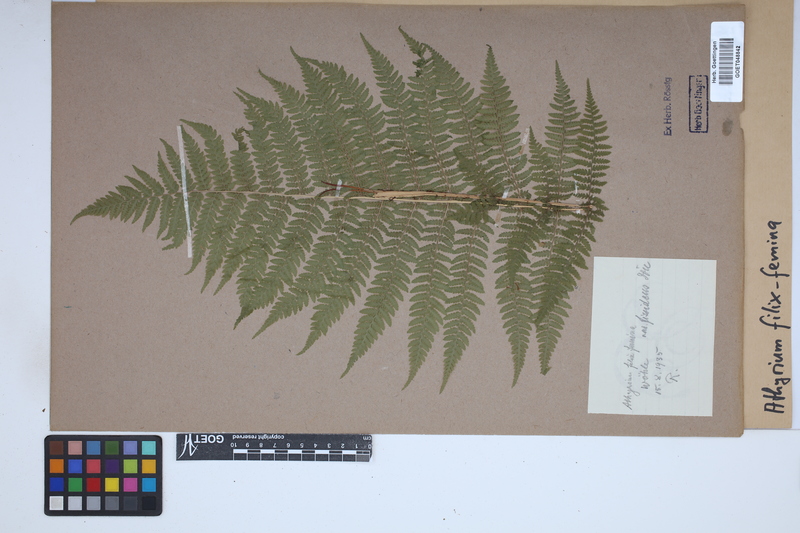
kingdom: Plantae
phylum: Tracheophyta
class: Polypodiopsida
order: Polypodiales
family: Athyriaceae
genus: Athyrium
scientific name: Athyrium filix-femina
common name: Lady fern
